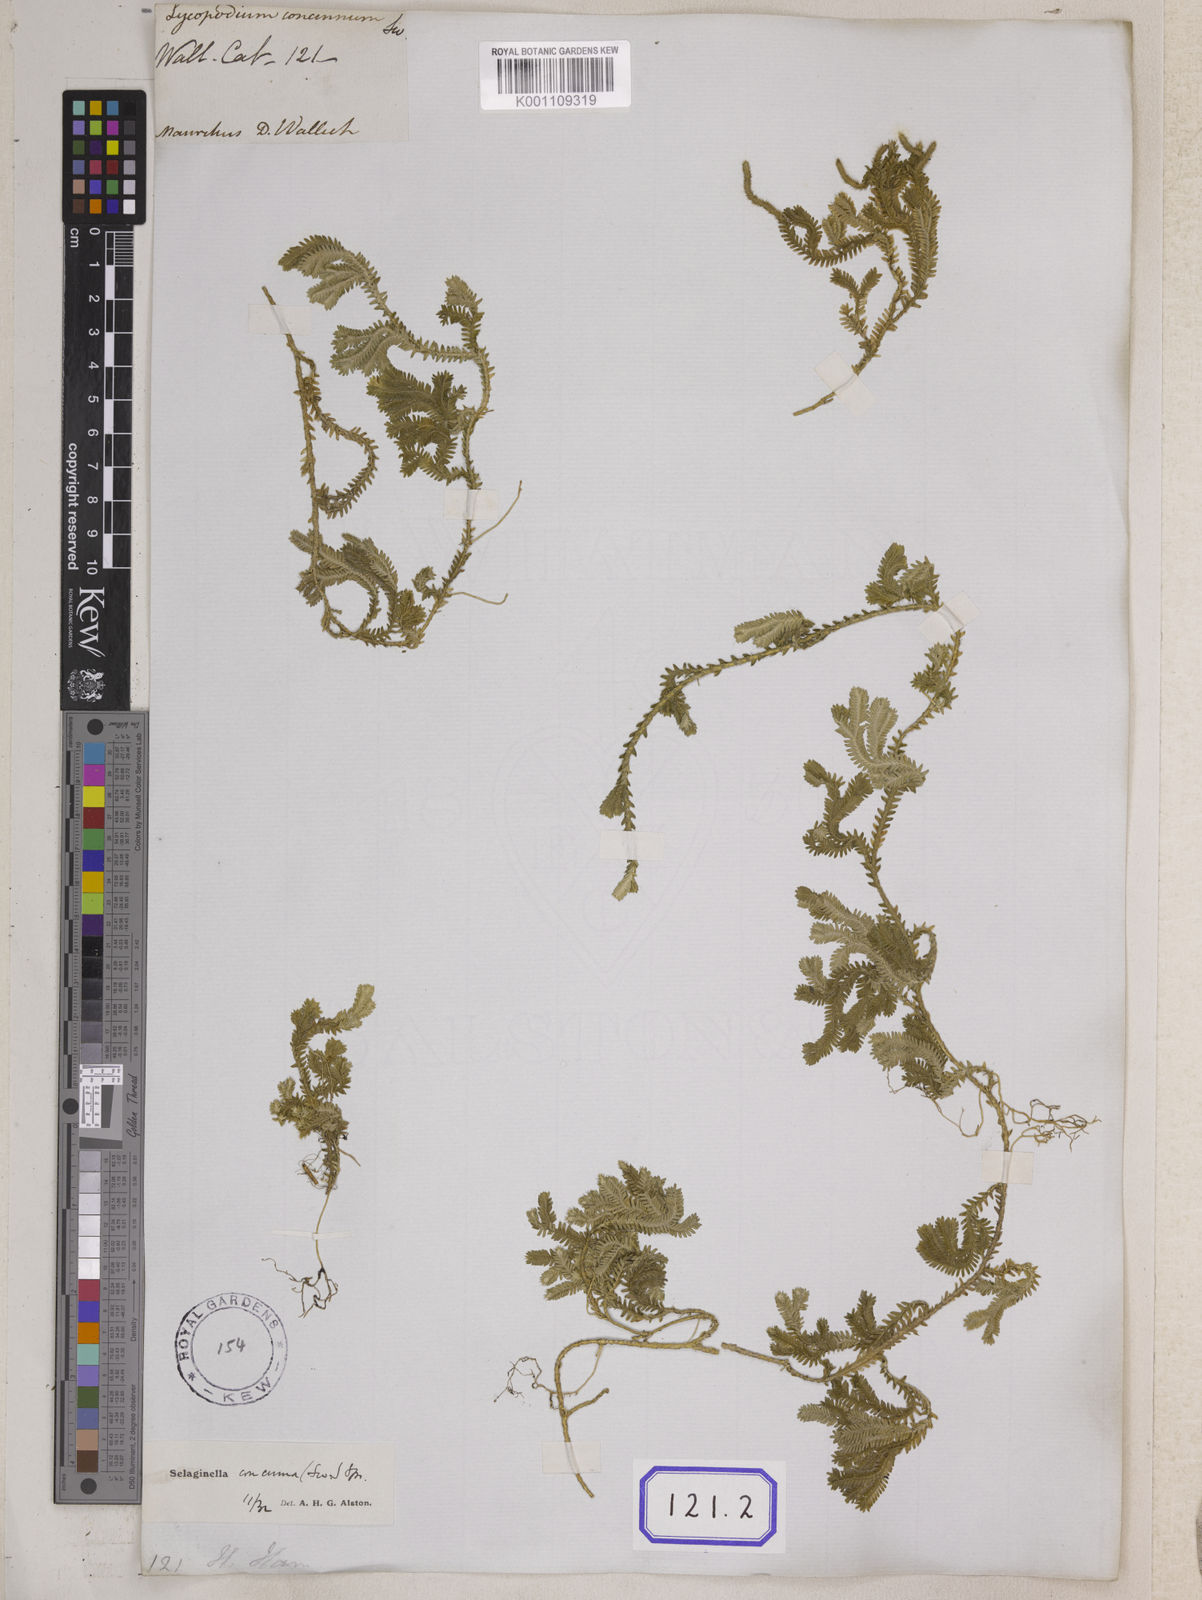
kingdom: Plantae
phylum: Tracheophyta
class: Lycopodiopsida
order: Selaginellales
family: Selaginellaceae
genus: Selaginella
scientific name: Selaginella concinna
